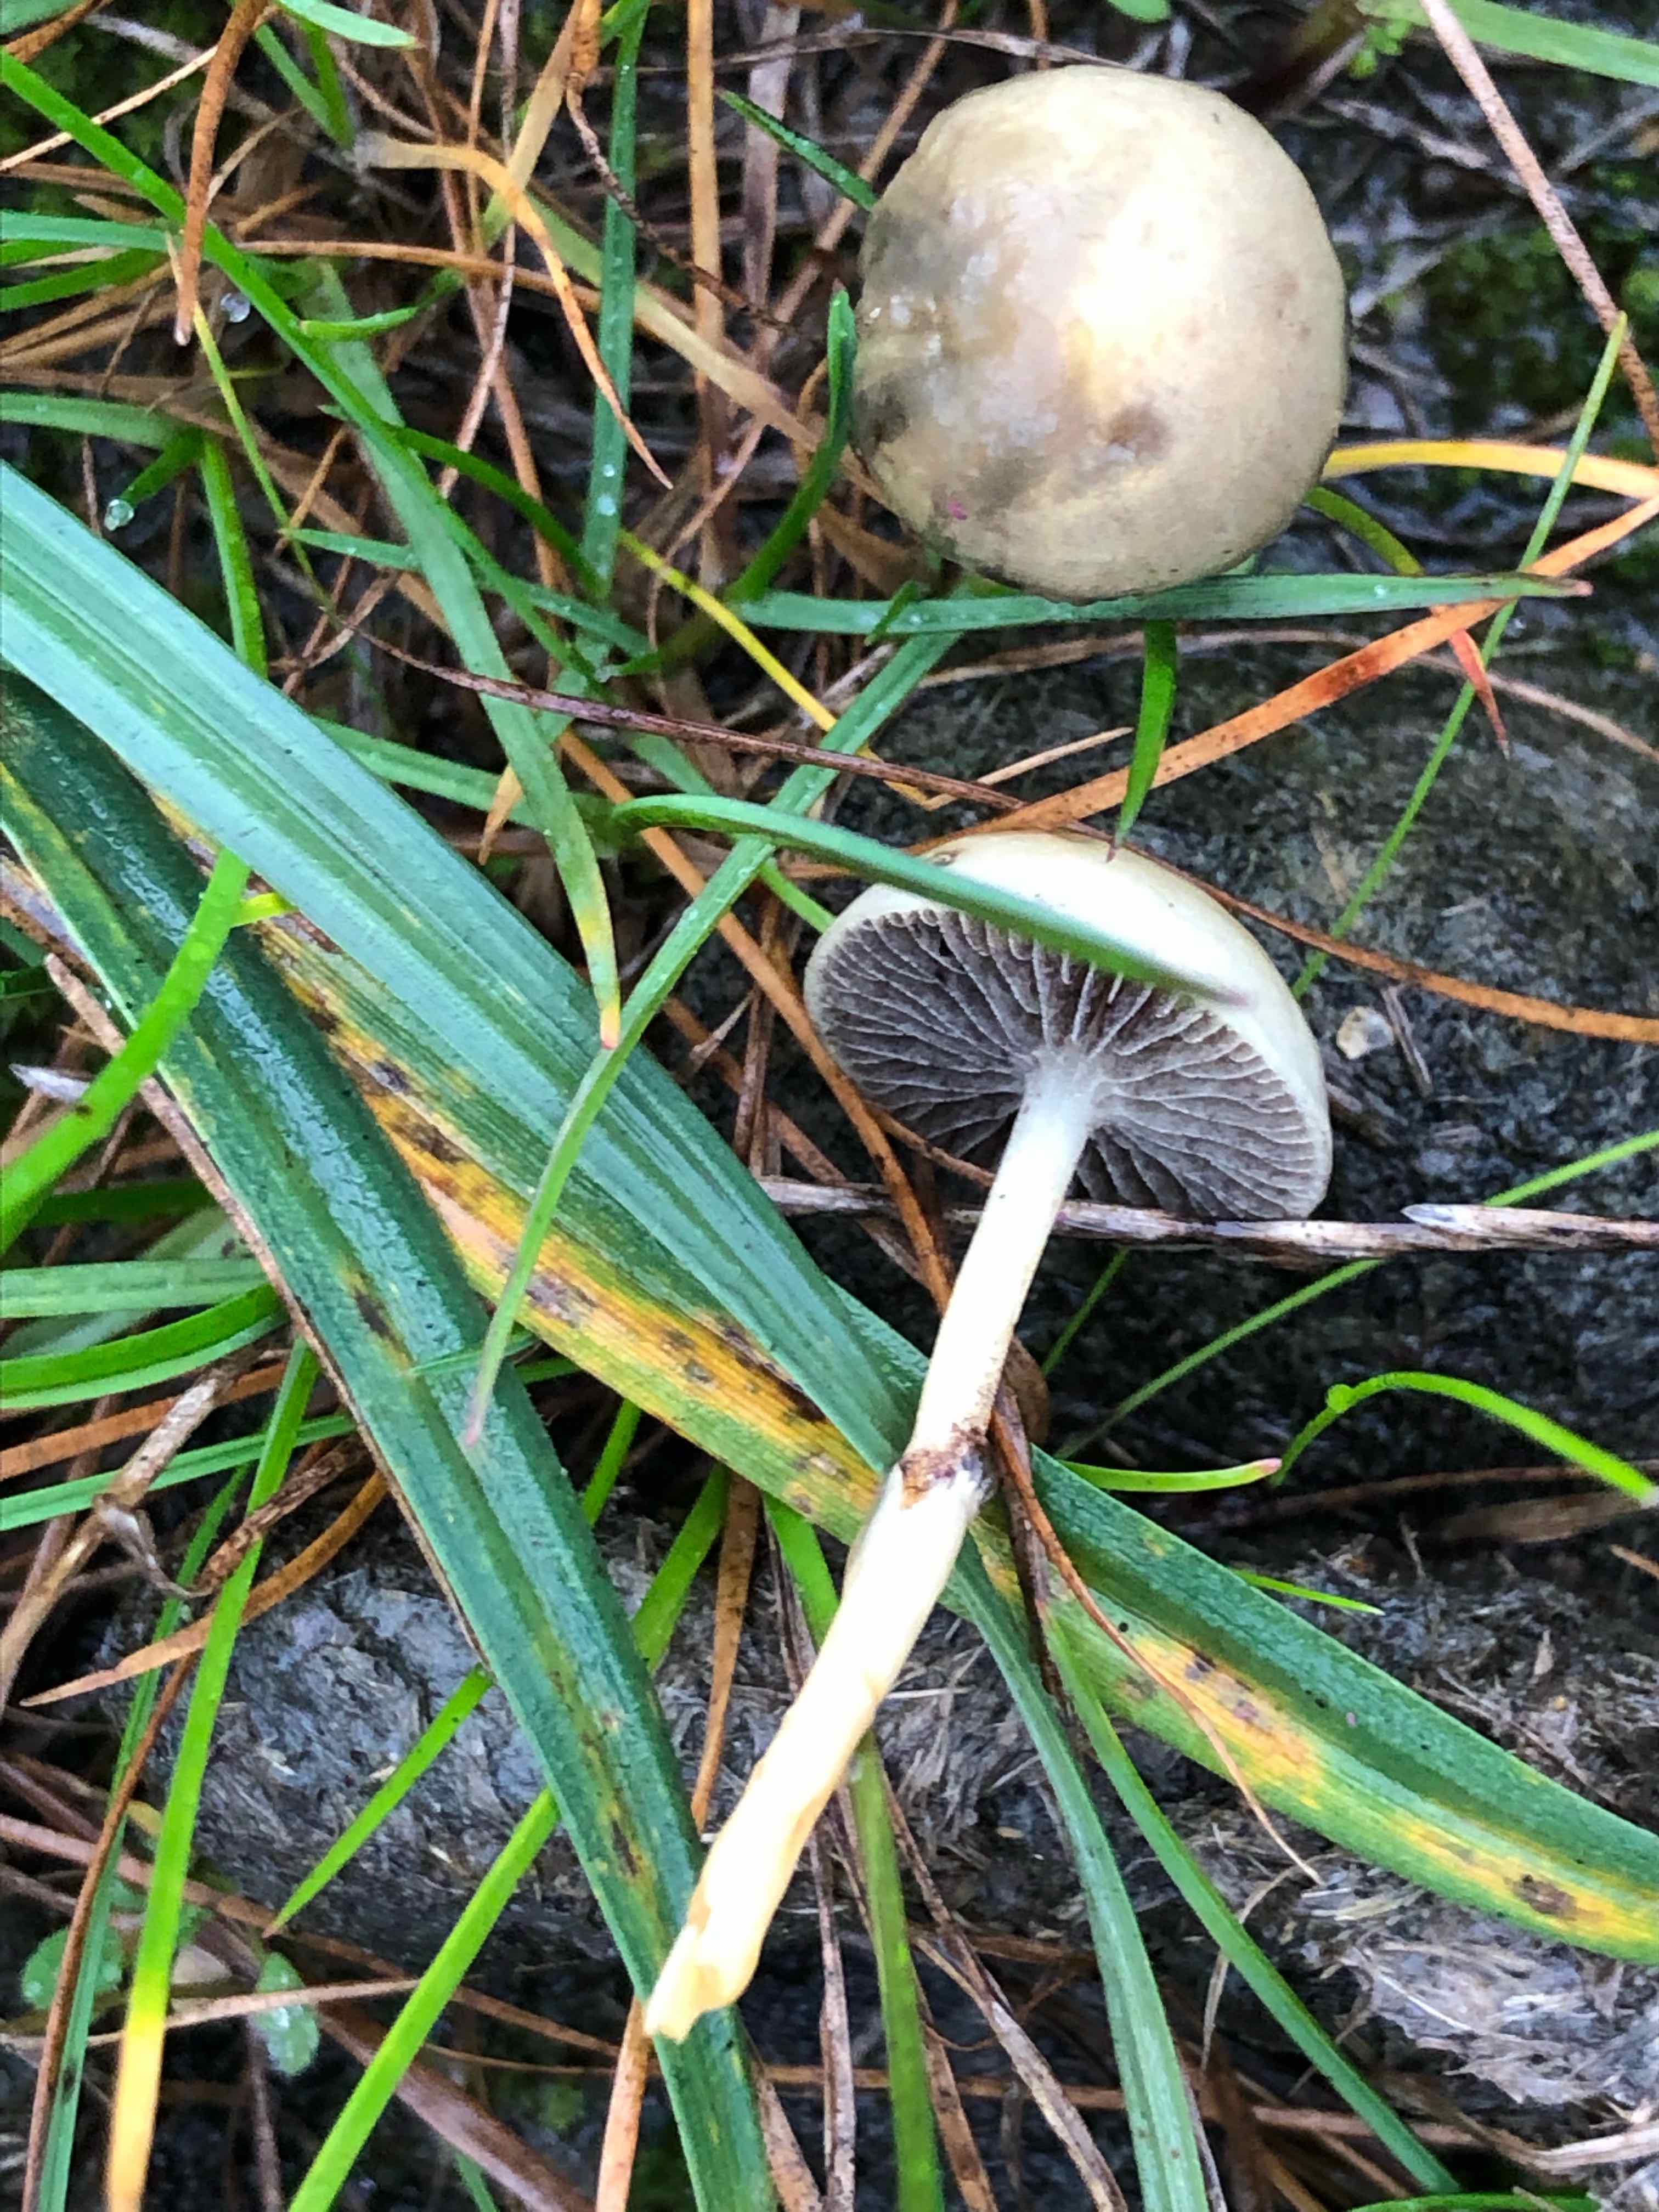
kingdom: Fungi
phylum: Basidiomycota
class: Agaricomycetes
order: Agaricales
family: Strophariaceae
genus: Protostropharia
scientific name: Protostropharia semiglobata
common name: halvkugleformet bredblad
